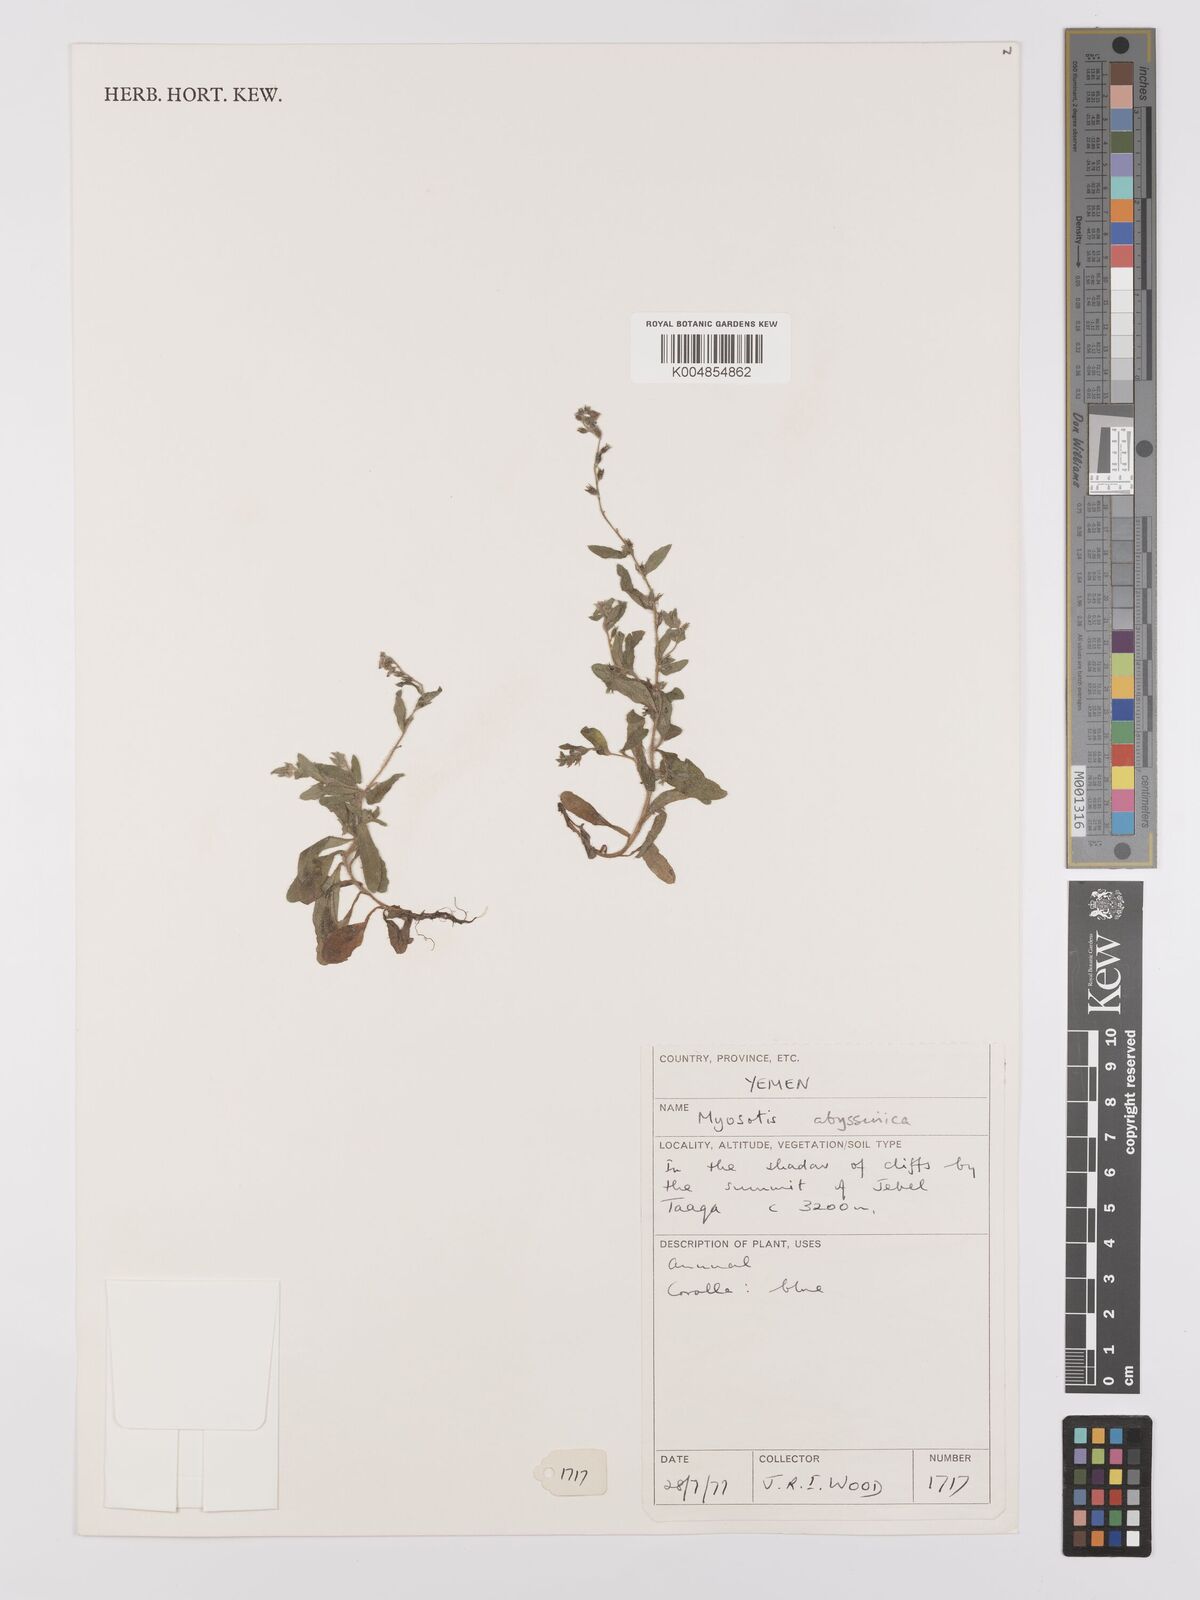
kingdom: Plantae
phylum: Tracheophyta
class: Magnoliopsida
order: Boraginales
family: Boraginaceae
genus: Myosotis
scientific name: Myosotis abyssinica
